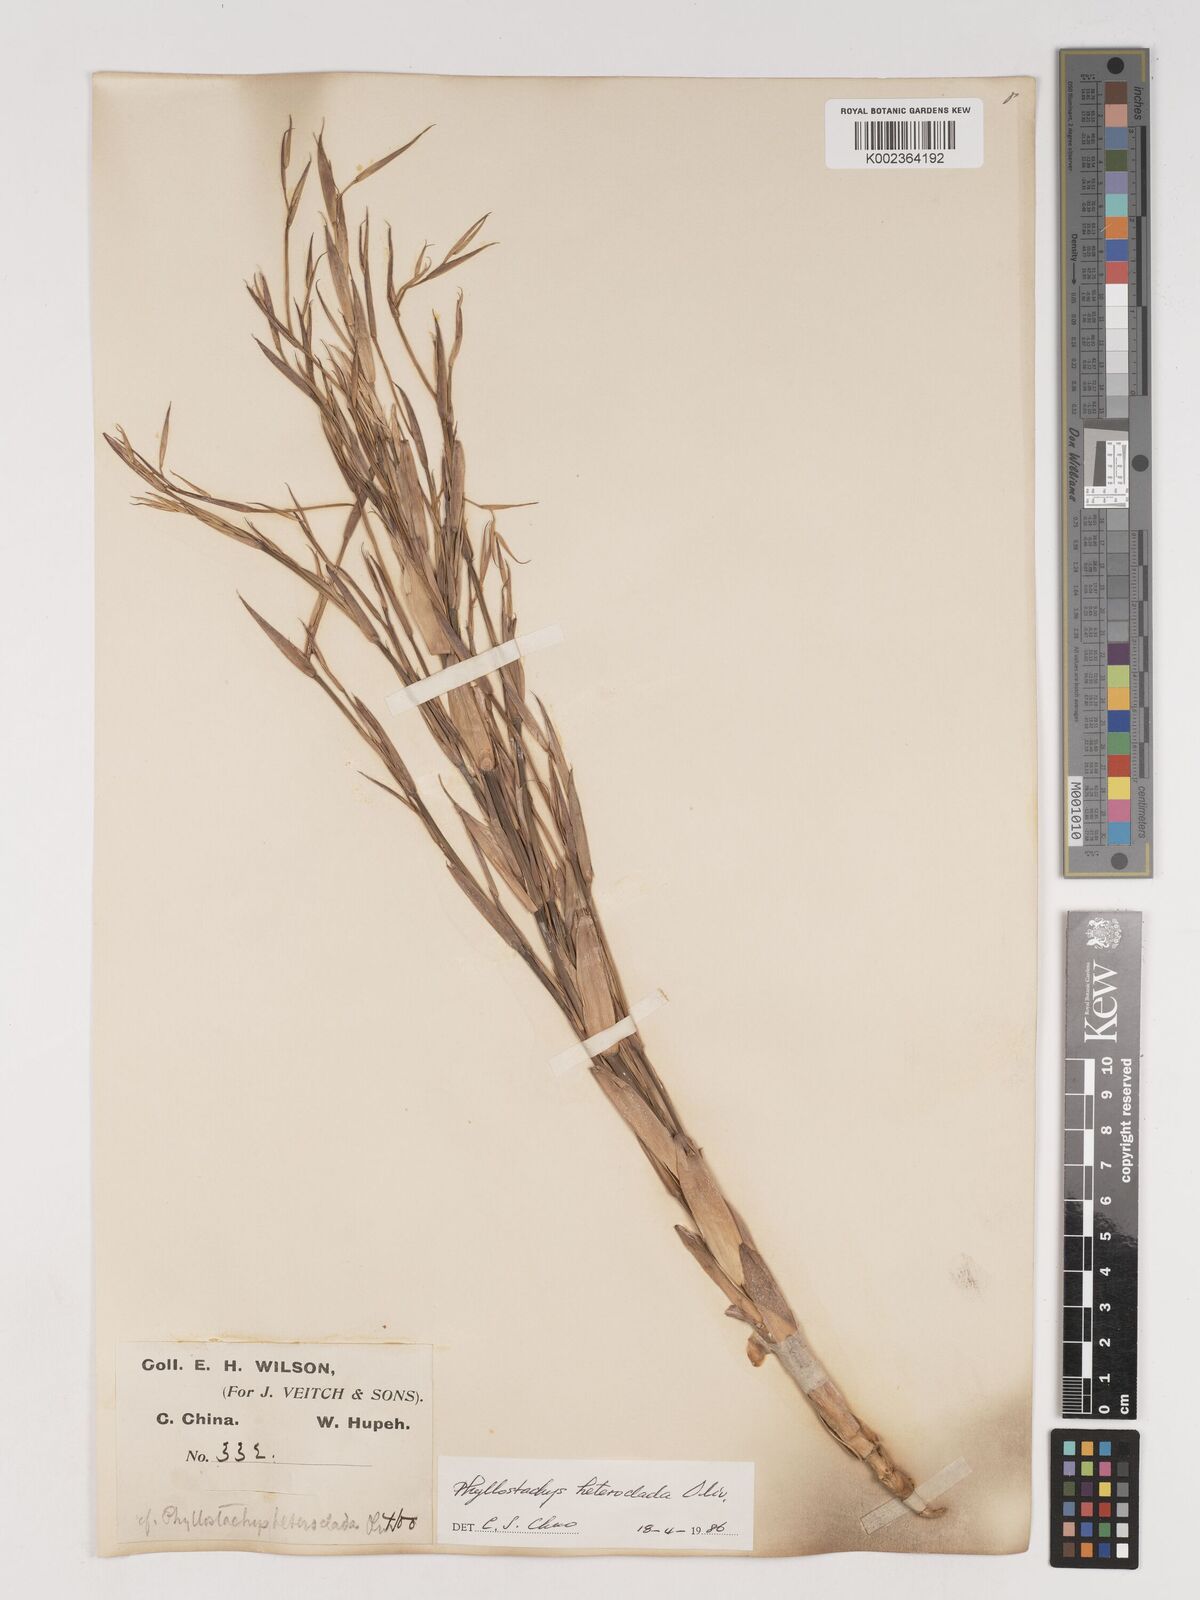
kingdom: Plantae
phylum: Tracheophyta
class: Liliopsida
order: Poales
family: Poaceae
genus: Phyllostachys
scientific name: Phyllostachys heteroclada
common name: Fishscale bamboo
